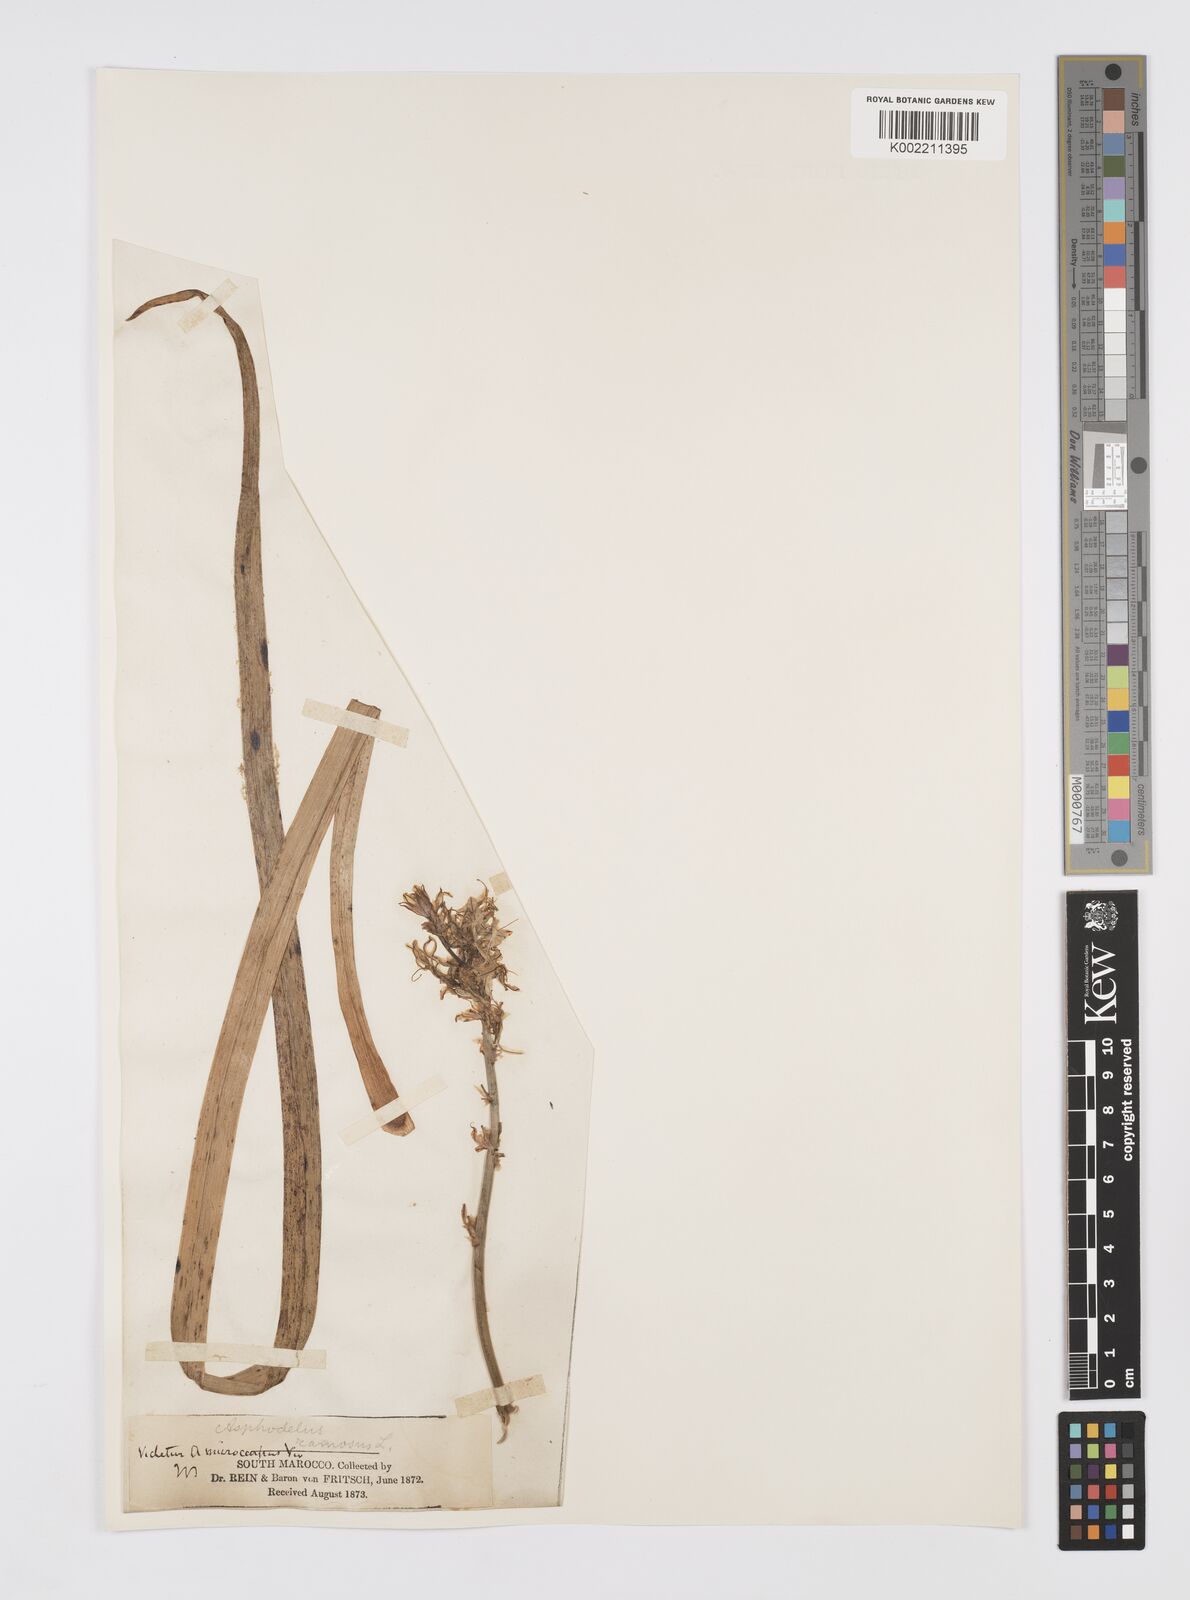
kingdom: Plantae
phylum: Tracheophyta
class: Liliopsida
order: Asparagales
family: Asphodelaceae
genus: Asphodelus
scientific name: Asphodelus ramosus
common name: Silverrod
